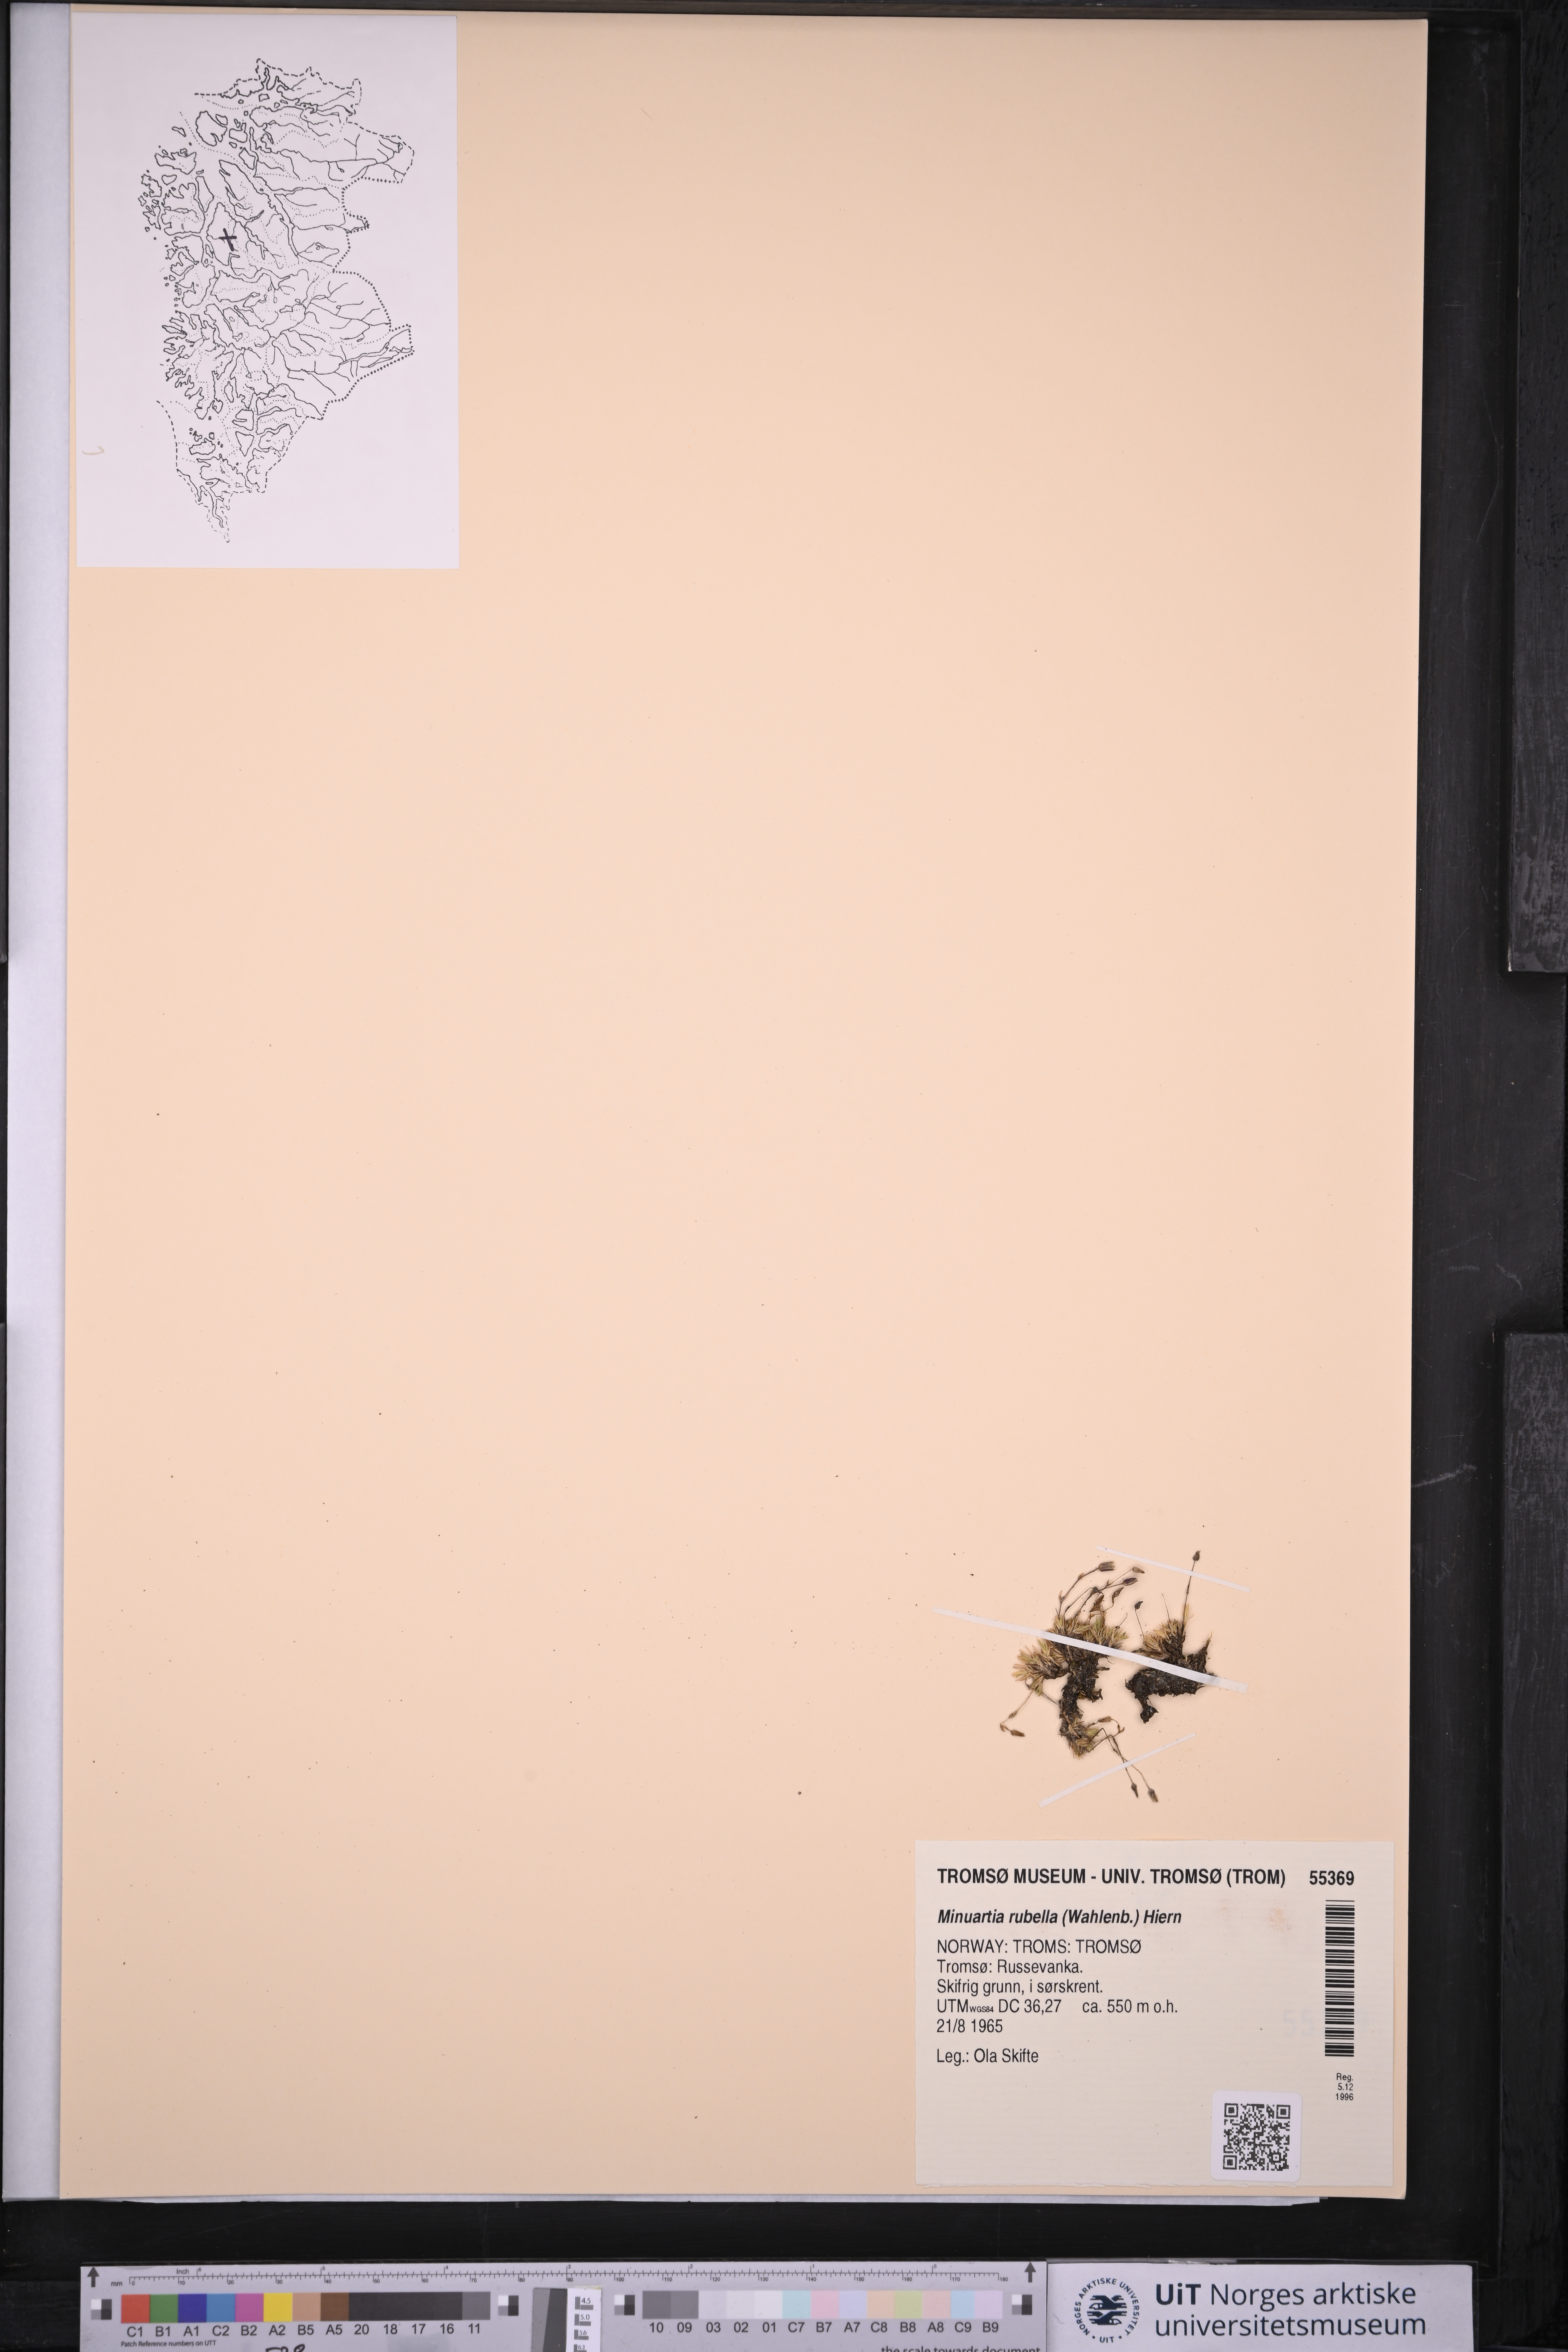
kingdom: Plantae
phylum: Tracheophyta
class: Magnoliopsida
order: Caryophyllales
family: Caryophyllaceae
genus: Sabulina
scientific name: Sabulina rubella
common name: Beautiful sandwort
